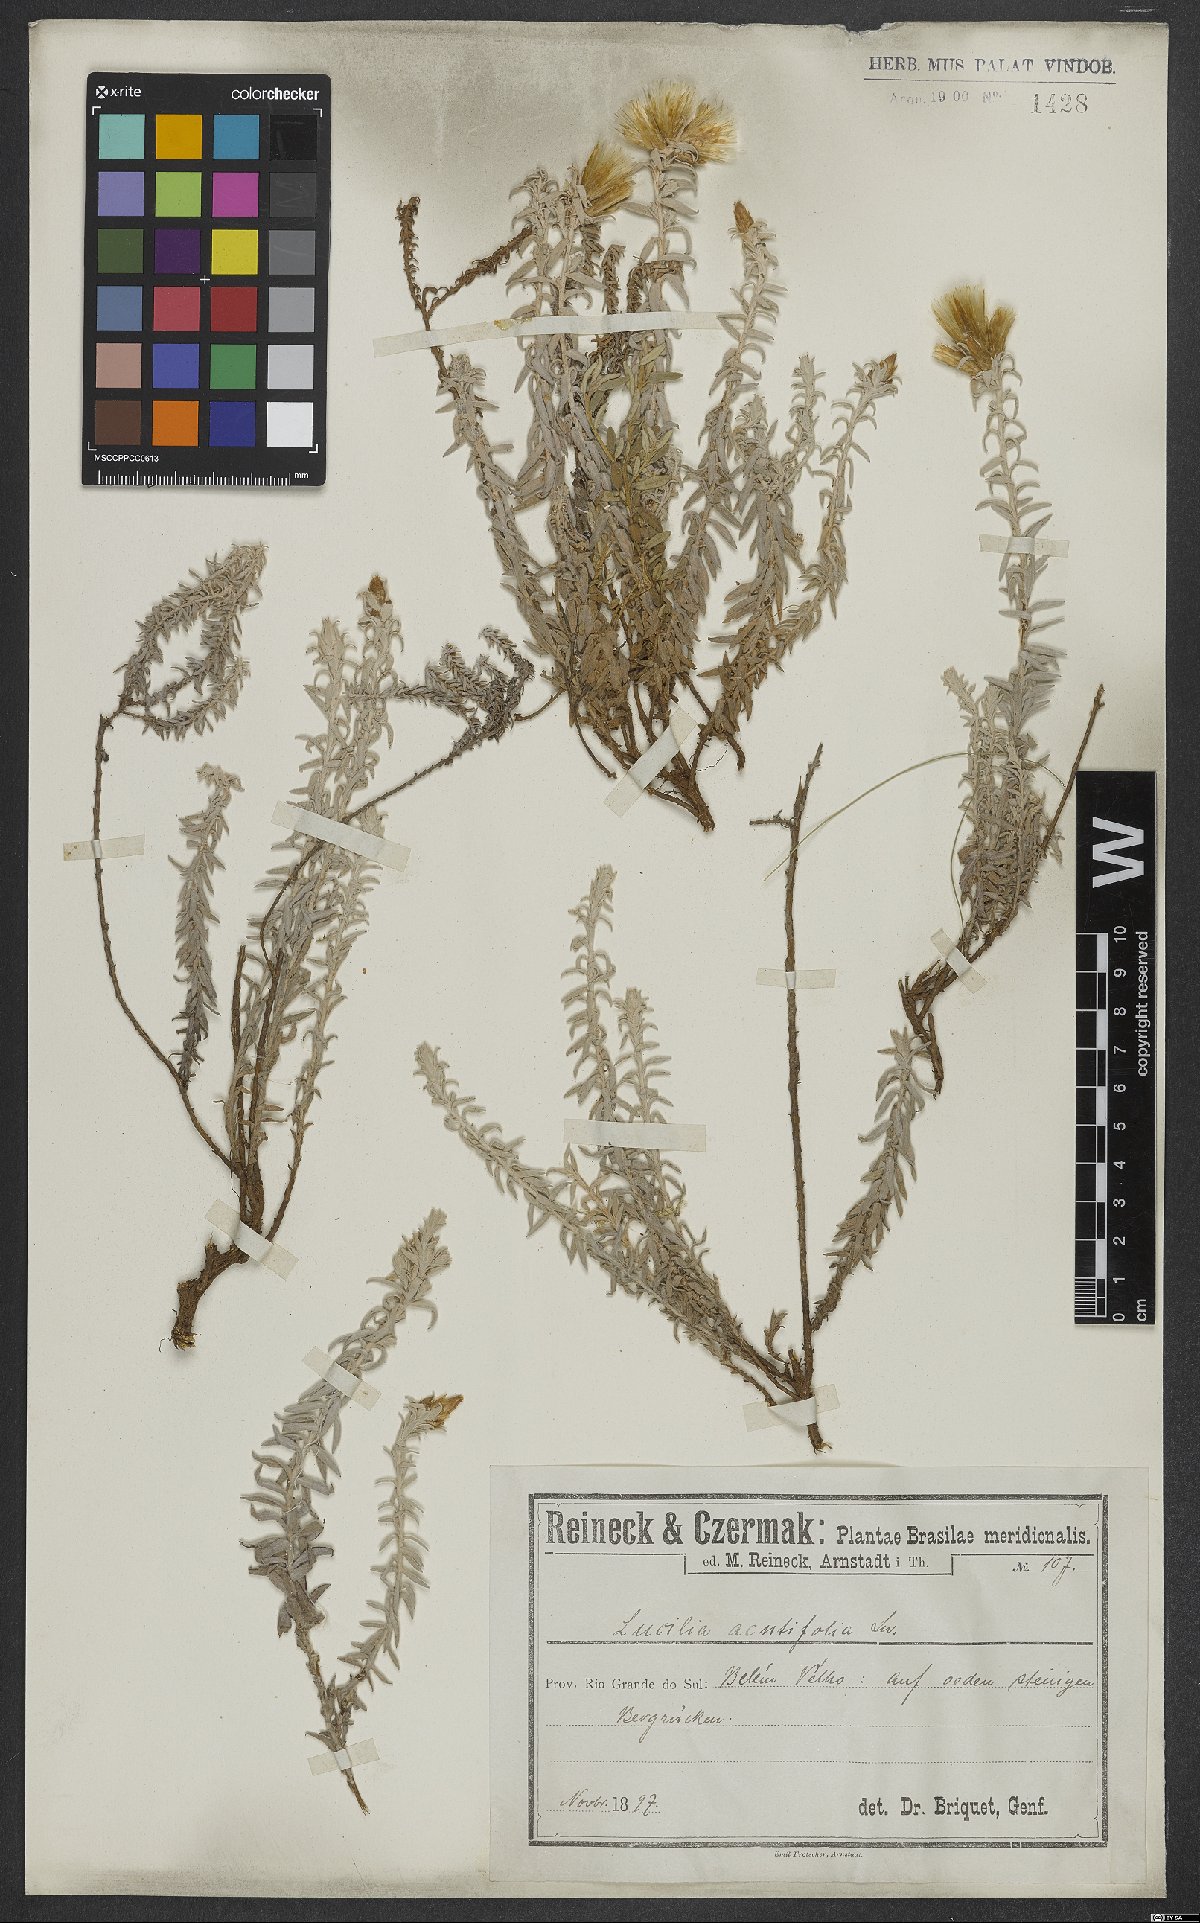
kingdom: Plantae
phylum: Tracheophyta
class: Magnoliopsida
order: Asterales
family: Asteraceae
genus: Lucilia
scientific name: Lucilia acutifolia
